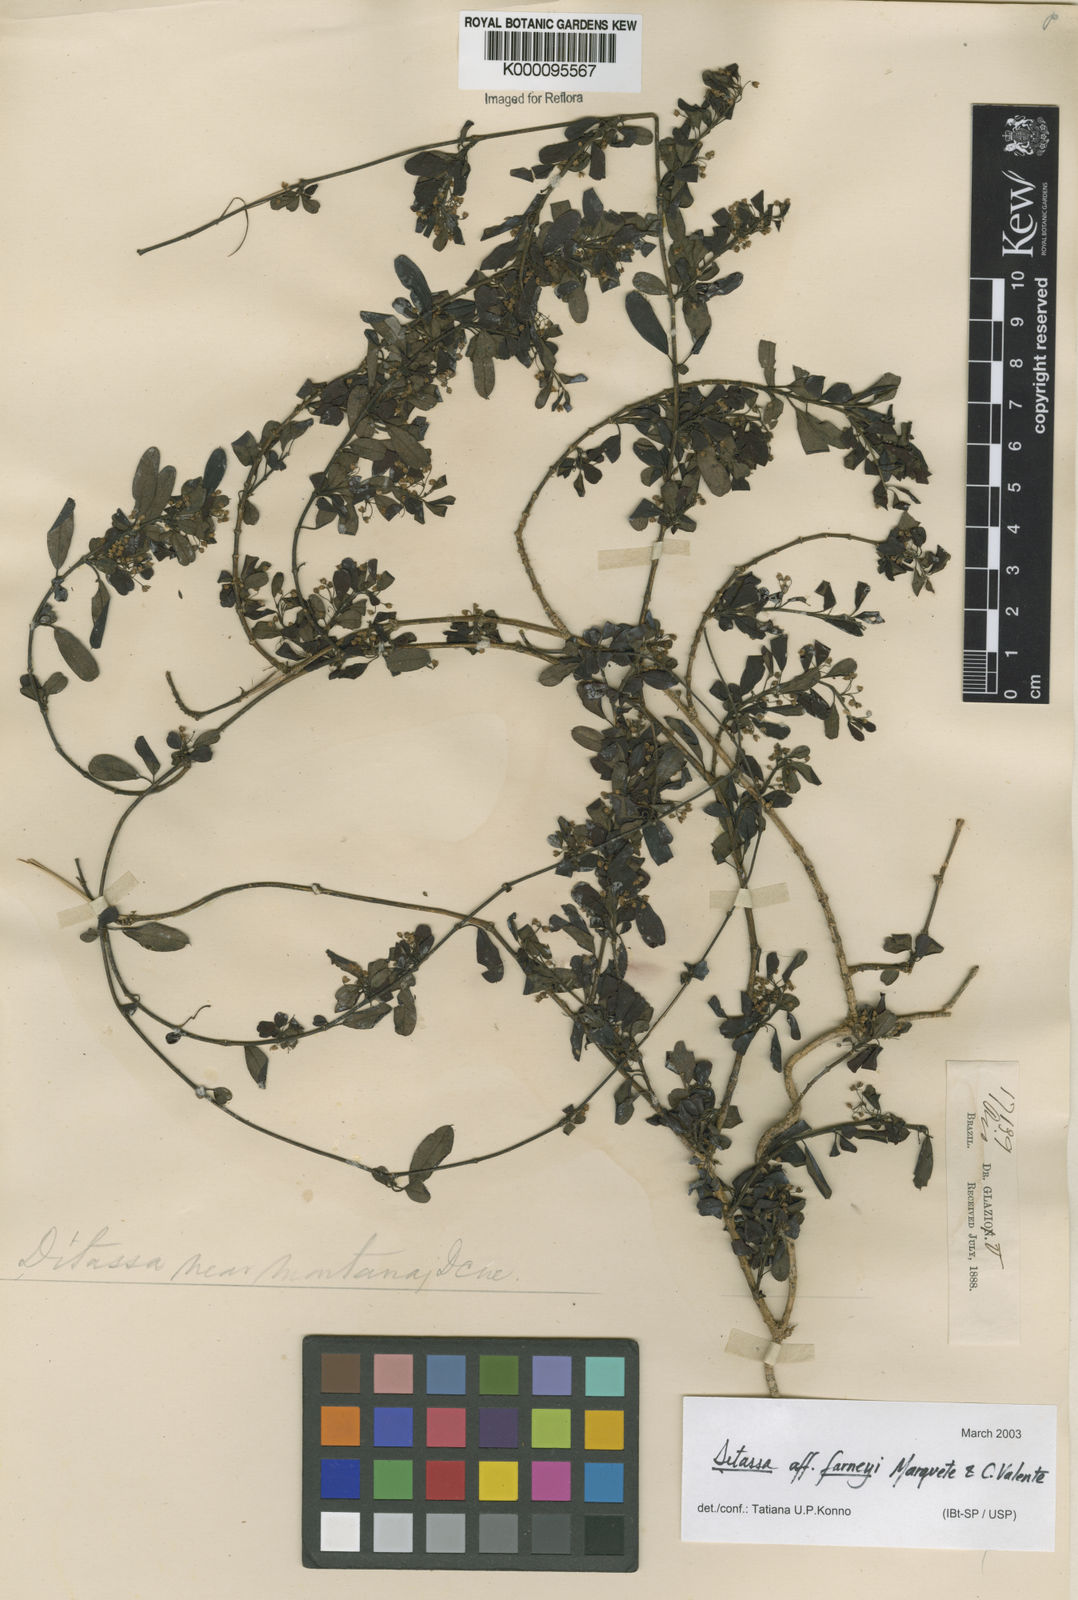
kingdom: Plantae
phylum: Tracheophyta
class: Magnoliopsida
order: Gentianales
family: Apocynaceae
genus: Ditassa
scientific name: Ditassa gracilis
